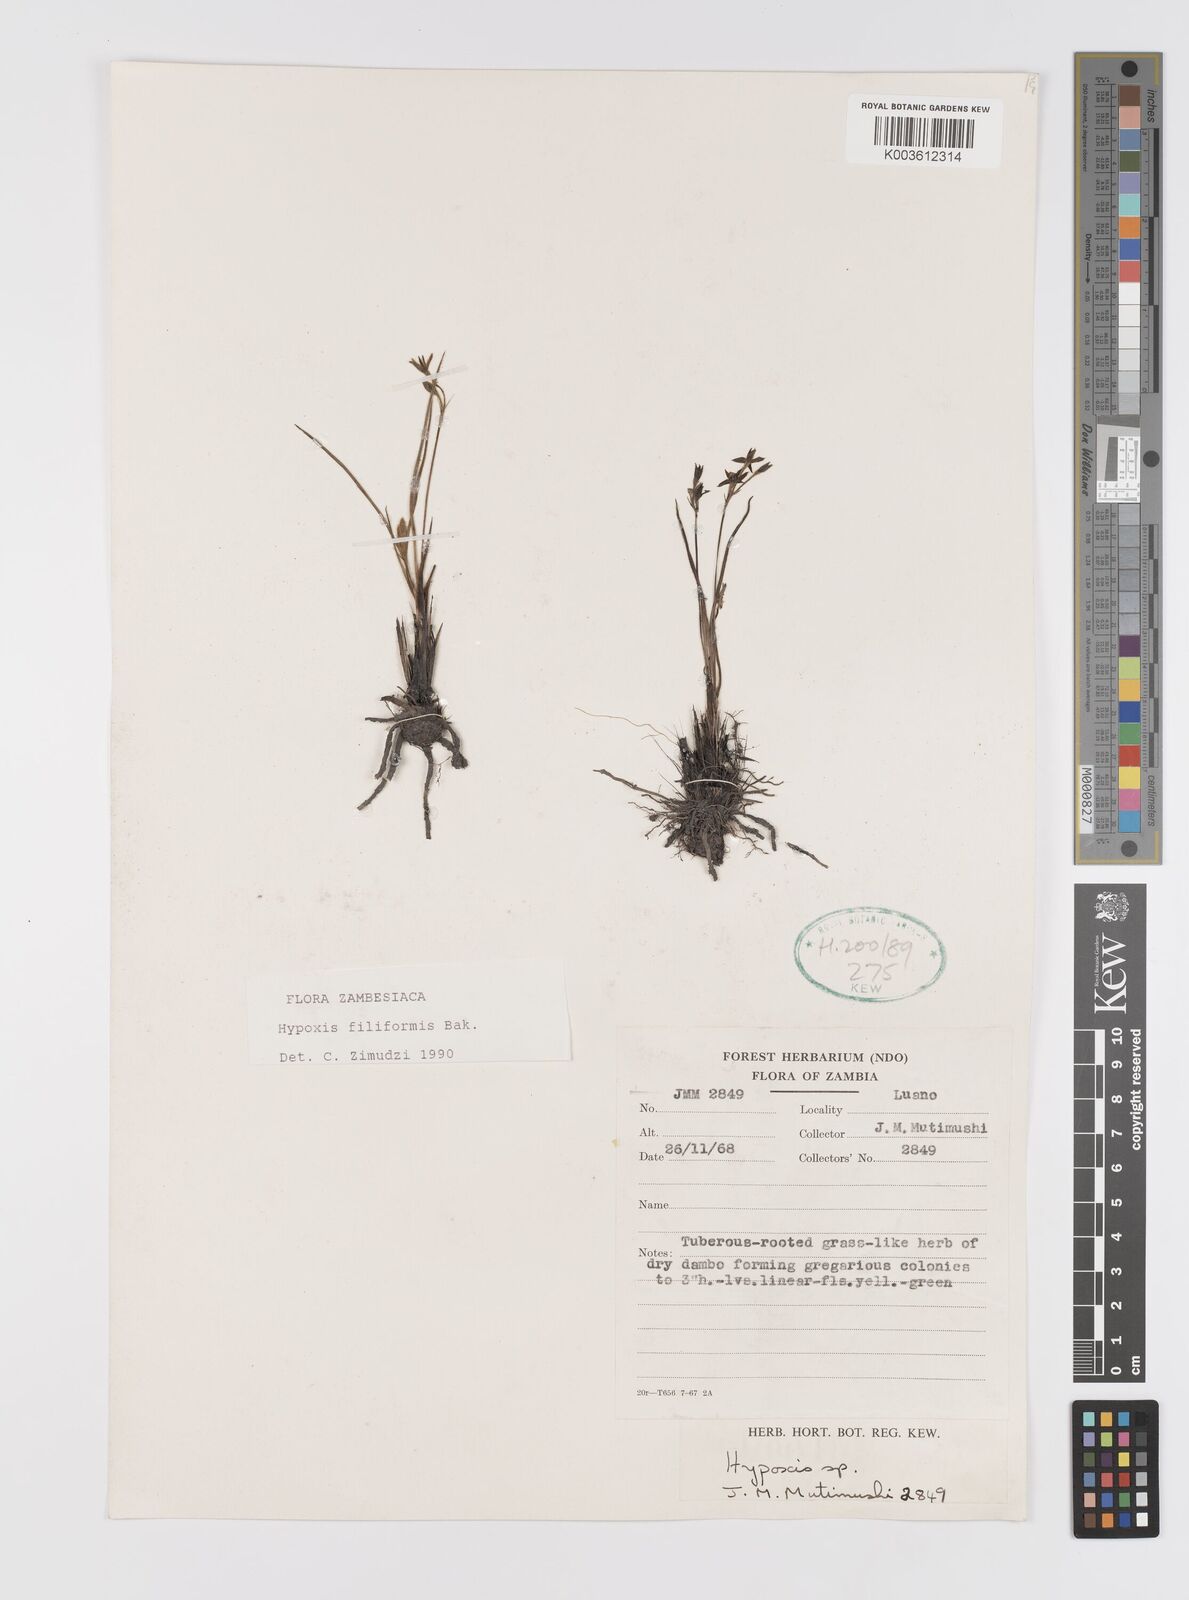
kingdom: Plantae
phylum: Tracheophyta
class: Liliopsida
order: Asparagales
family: Hypoxidaceae
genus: Hypoxis
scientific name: Hypoxis filiformis
